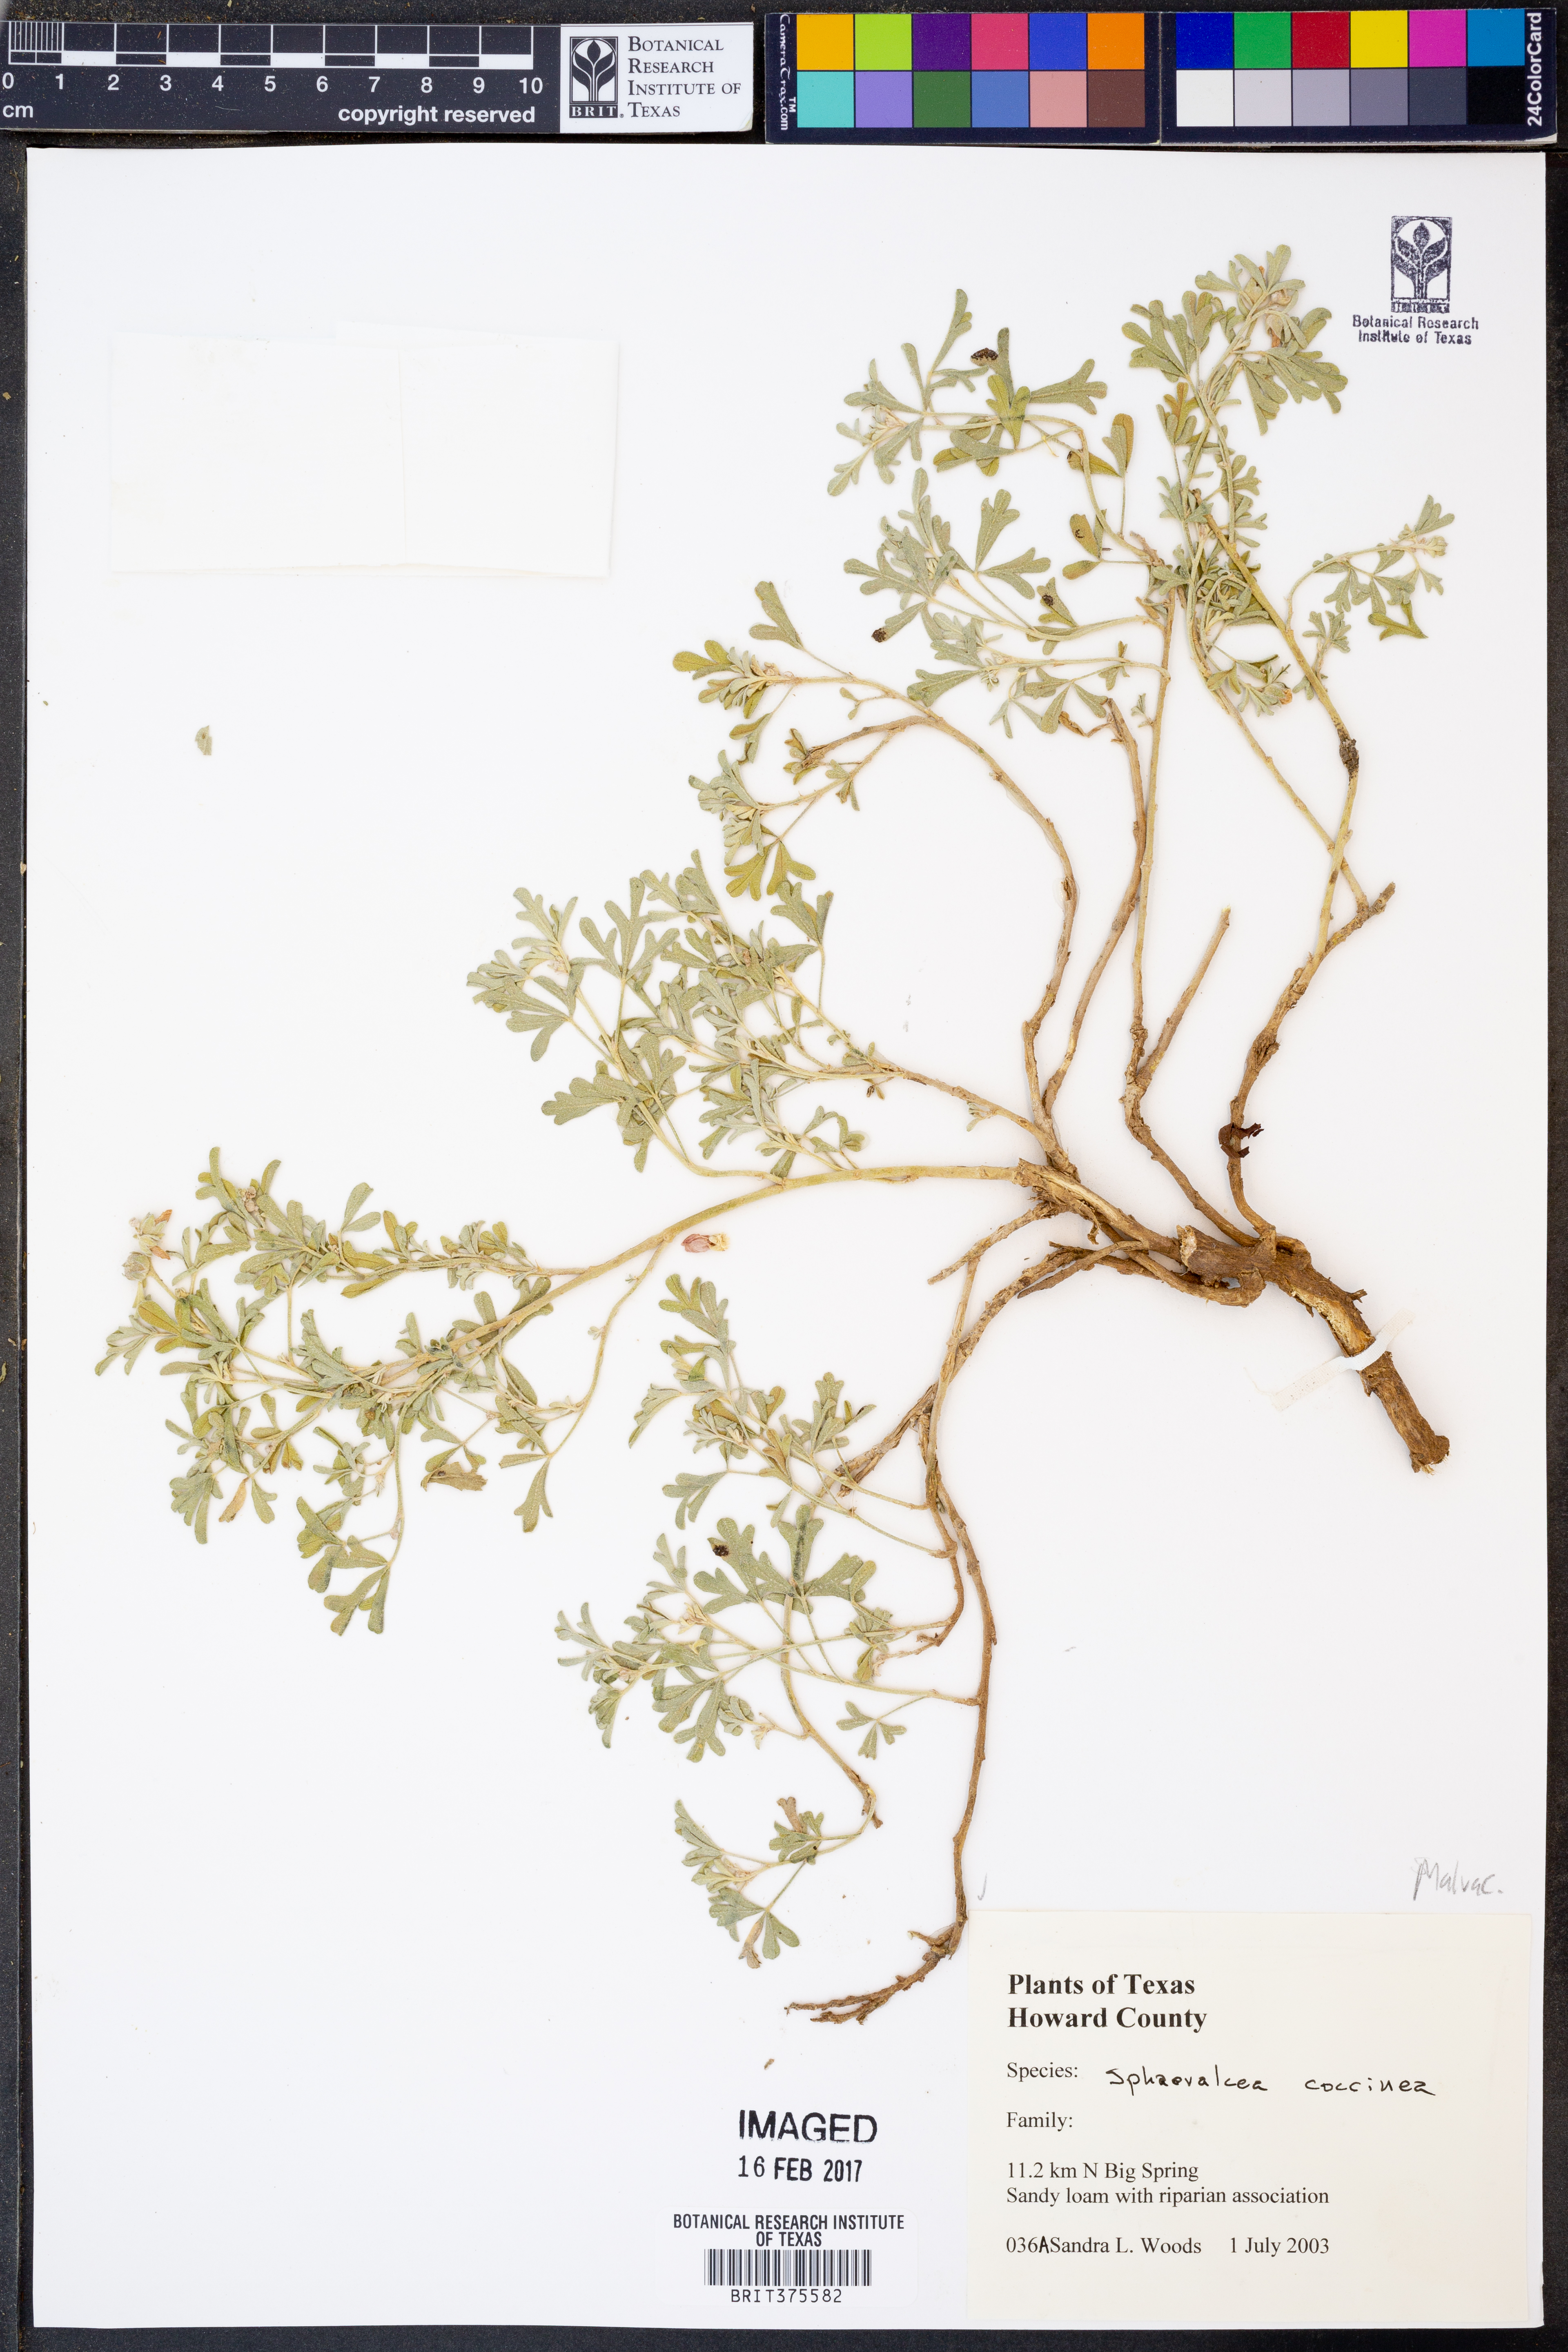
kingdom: Plantae
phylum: Tracheophyta
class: Magnoliopsida
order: Malvales
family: Malvaceae
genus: Sphaeralcea
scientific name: Sphaeralcea coccinea
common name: Moss-rose
